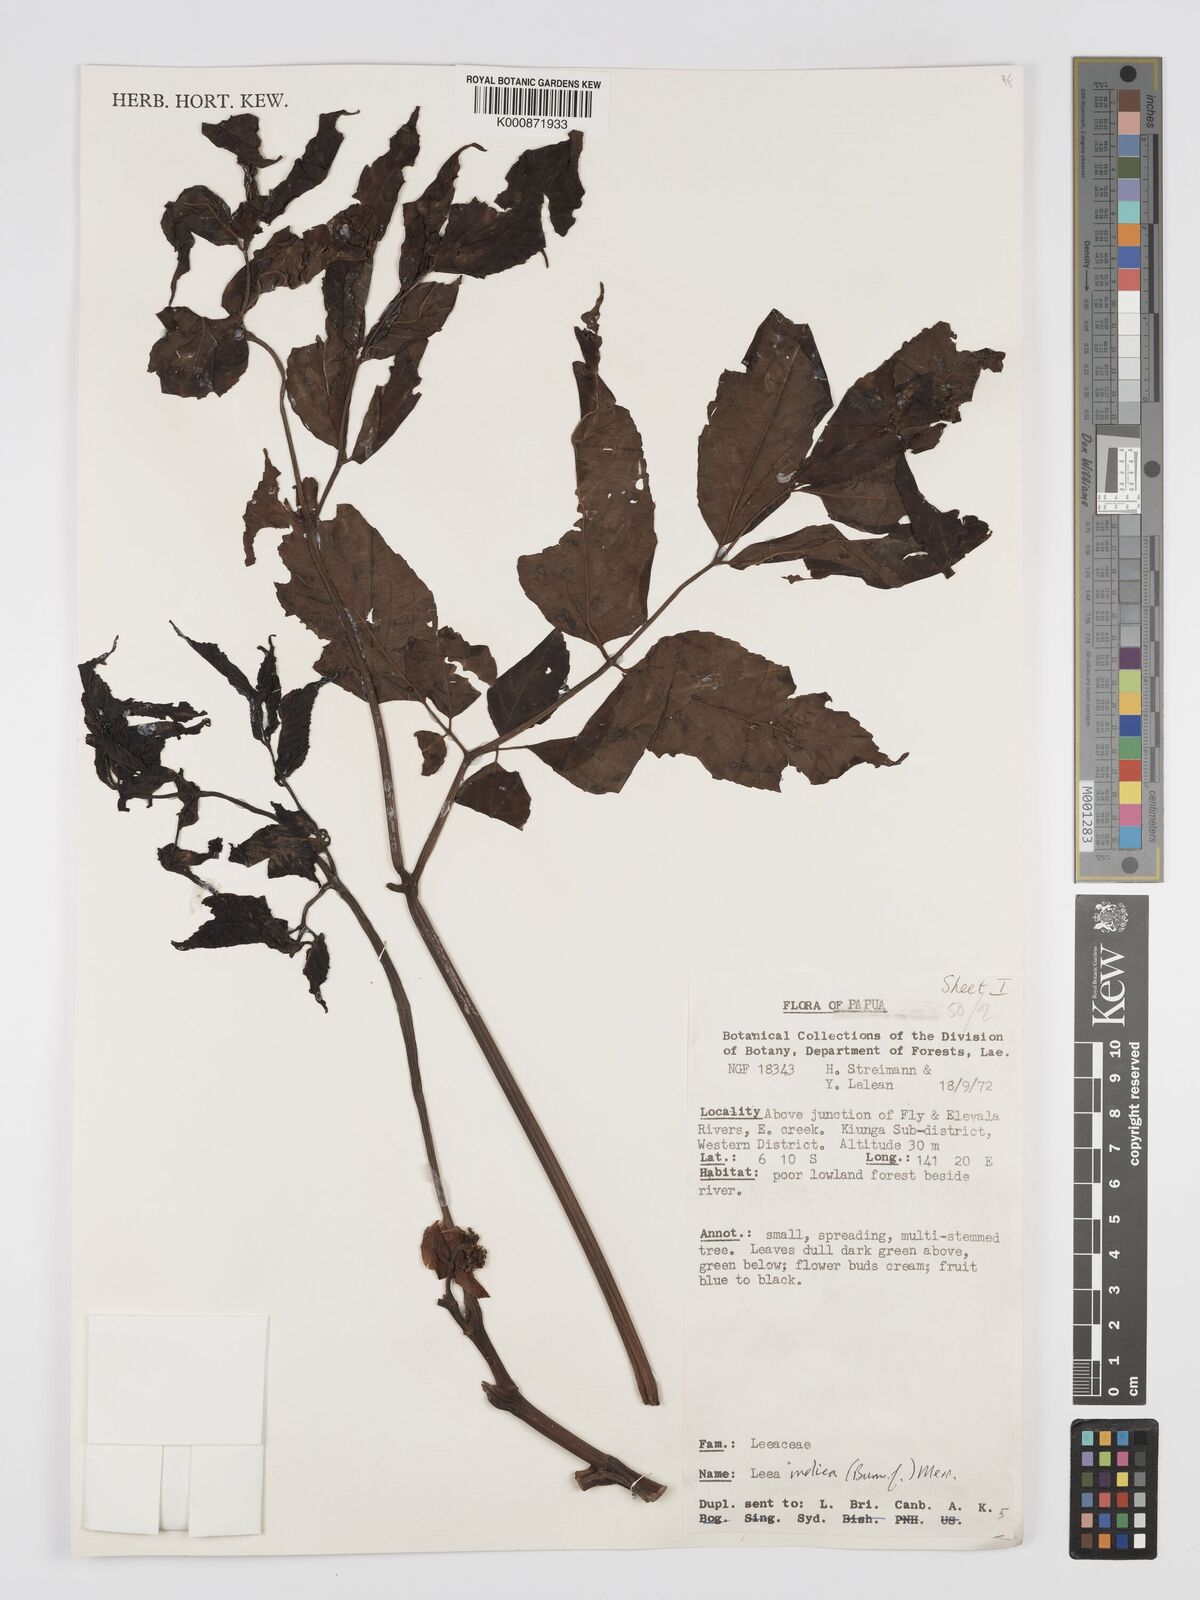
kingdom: Plantae
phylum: Tracheophyta
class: Magnoliopsida
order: Vitales
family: Vitaceae
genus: Leea
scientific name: Leea indica
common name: Bandicoot-berry
